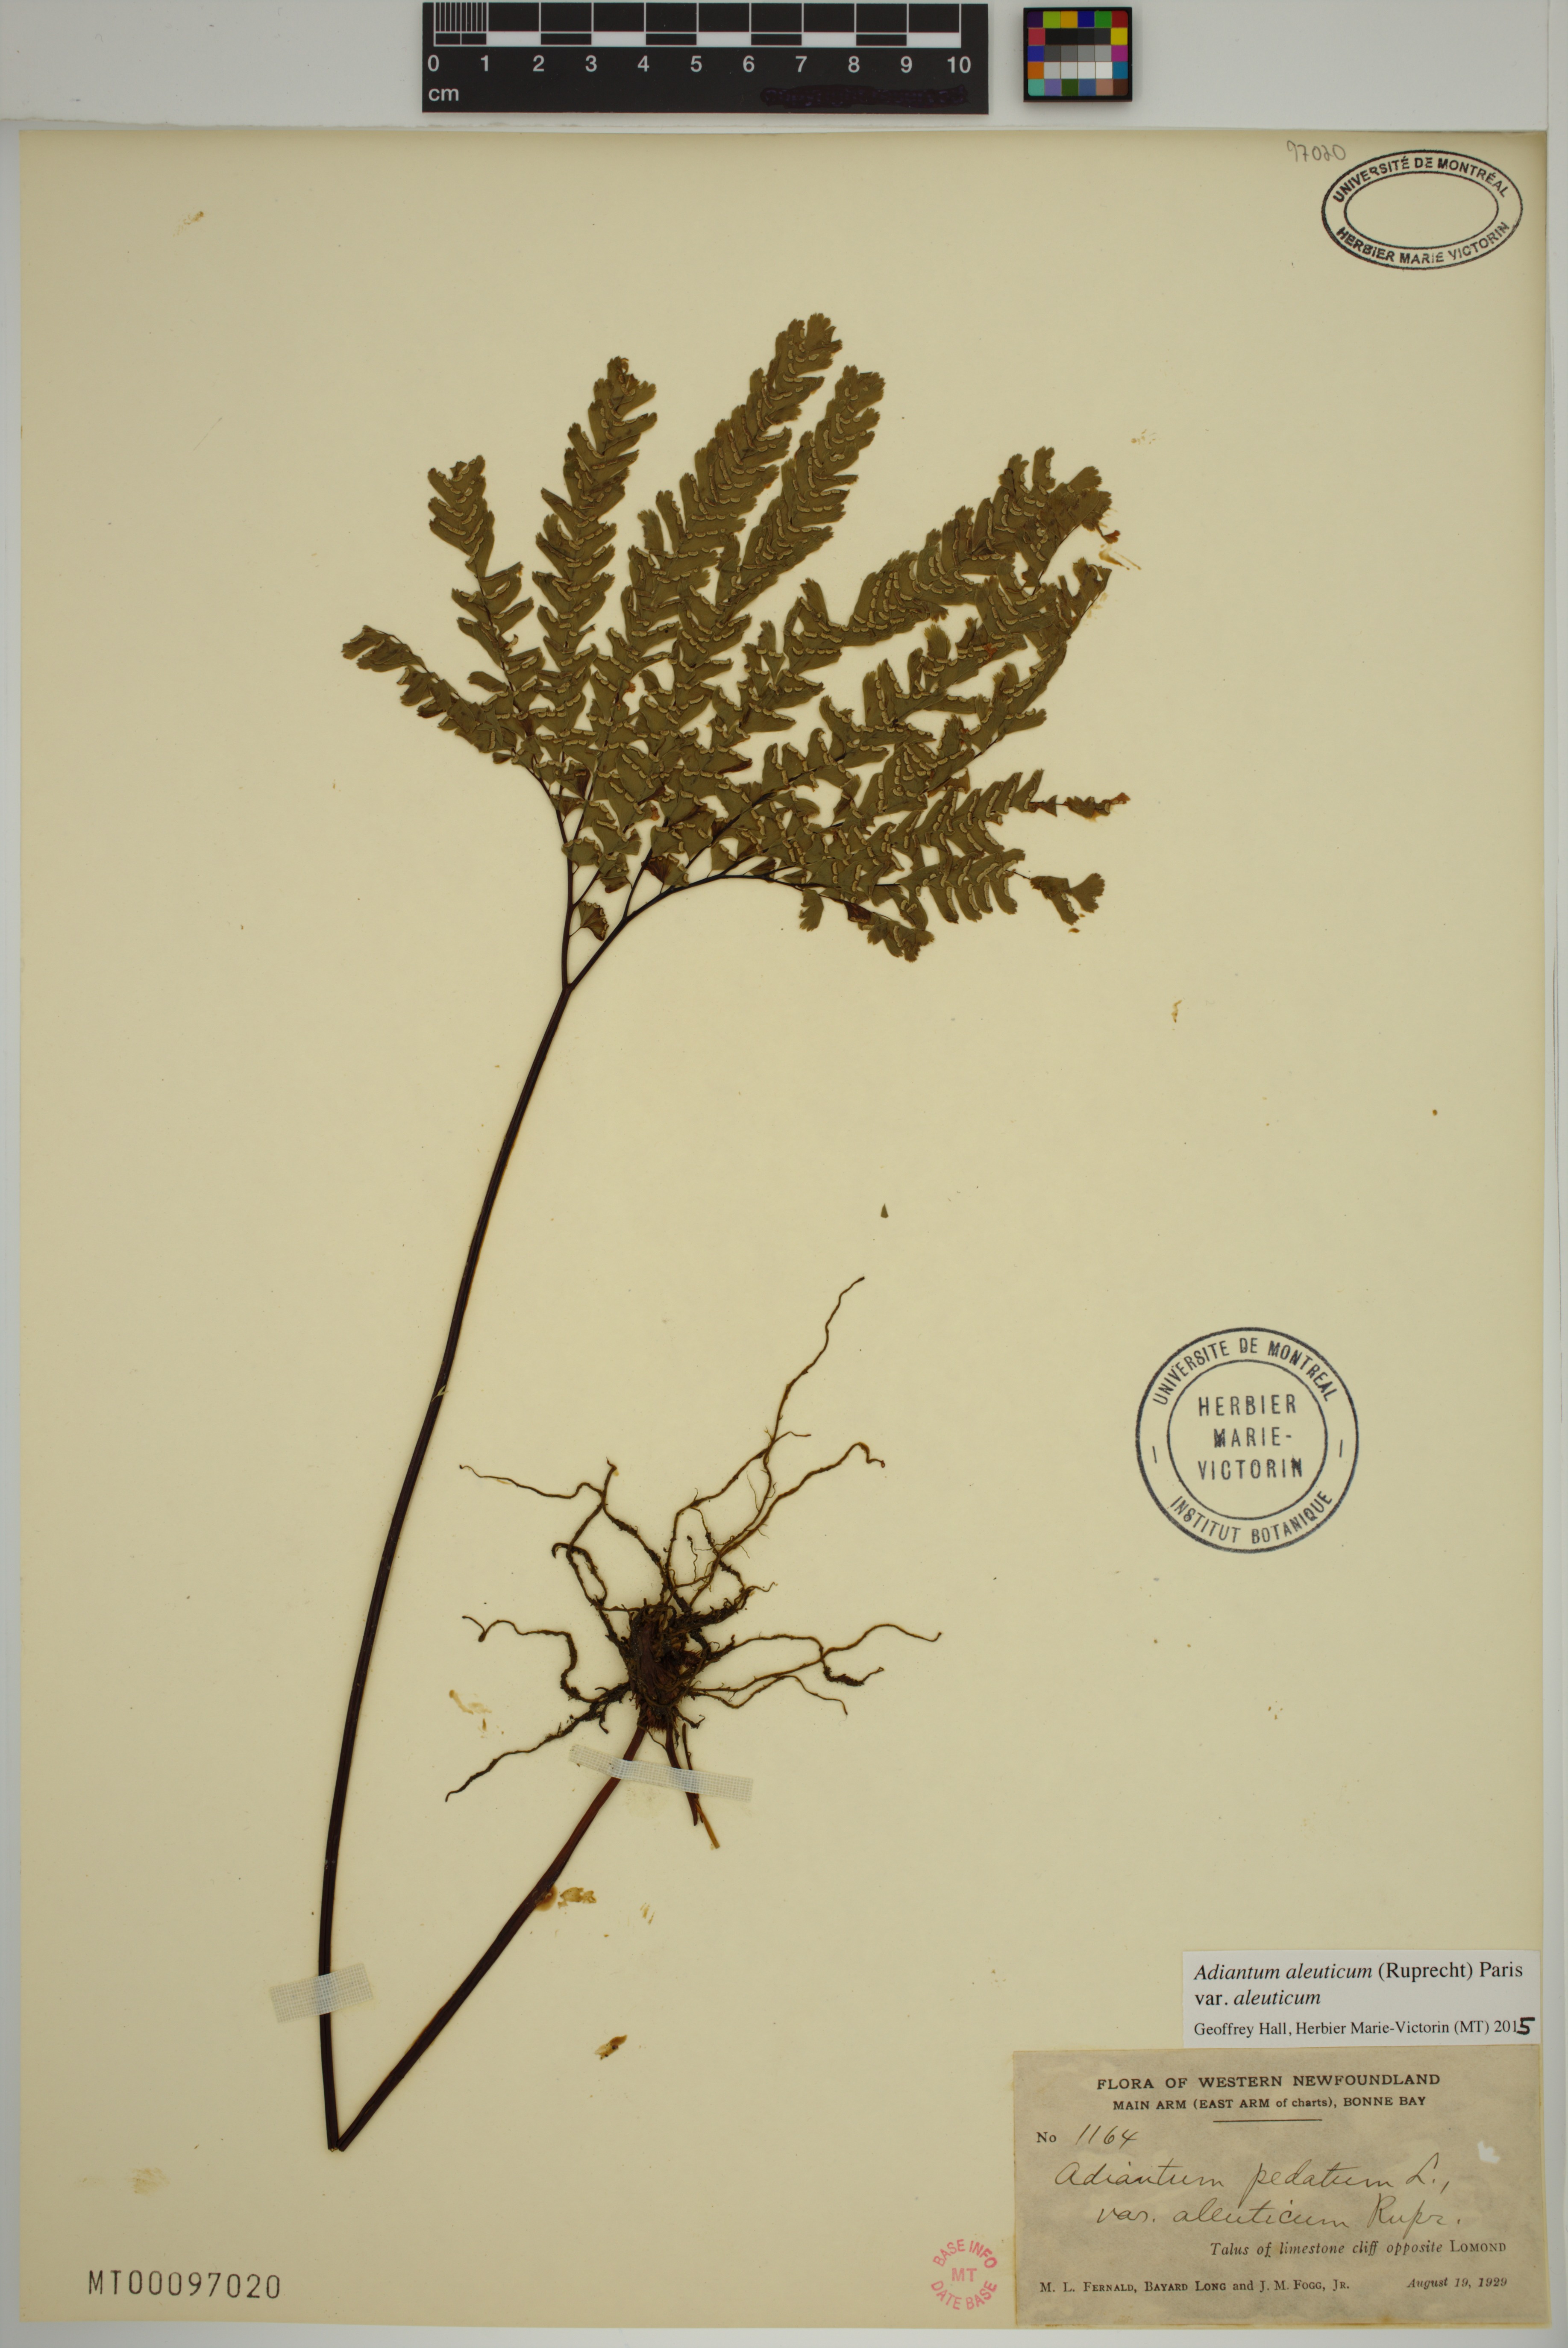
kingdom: Plantae
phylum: Tracheophyta
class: Polypodiopsida
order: Polypodiales
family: Pteridaceae
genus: Adiantum
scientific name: Adiantum aleuticum
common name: Aleutian maidenhair fern
